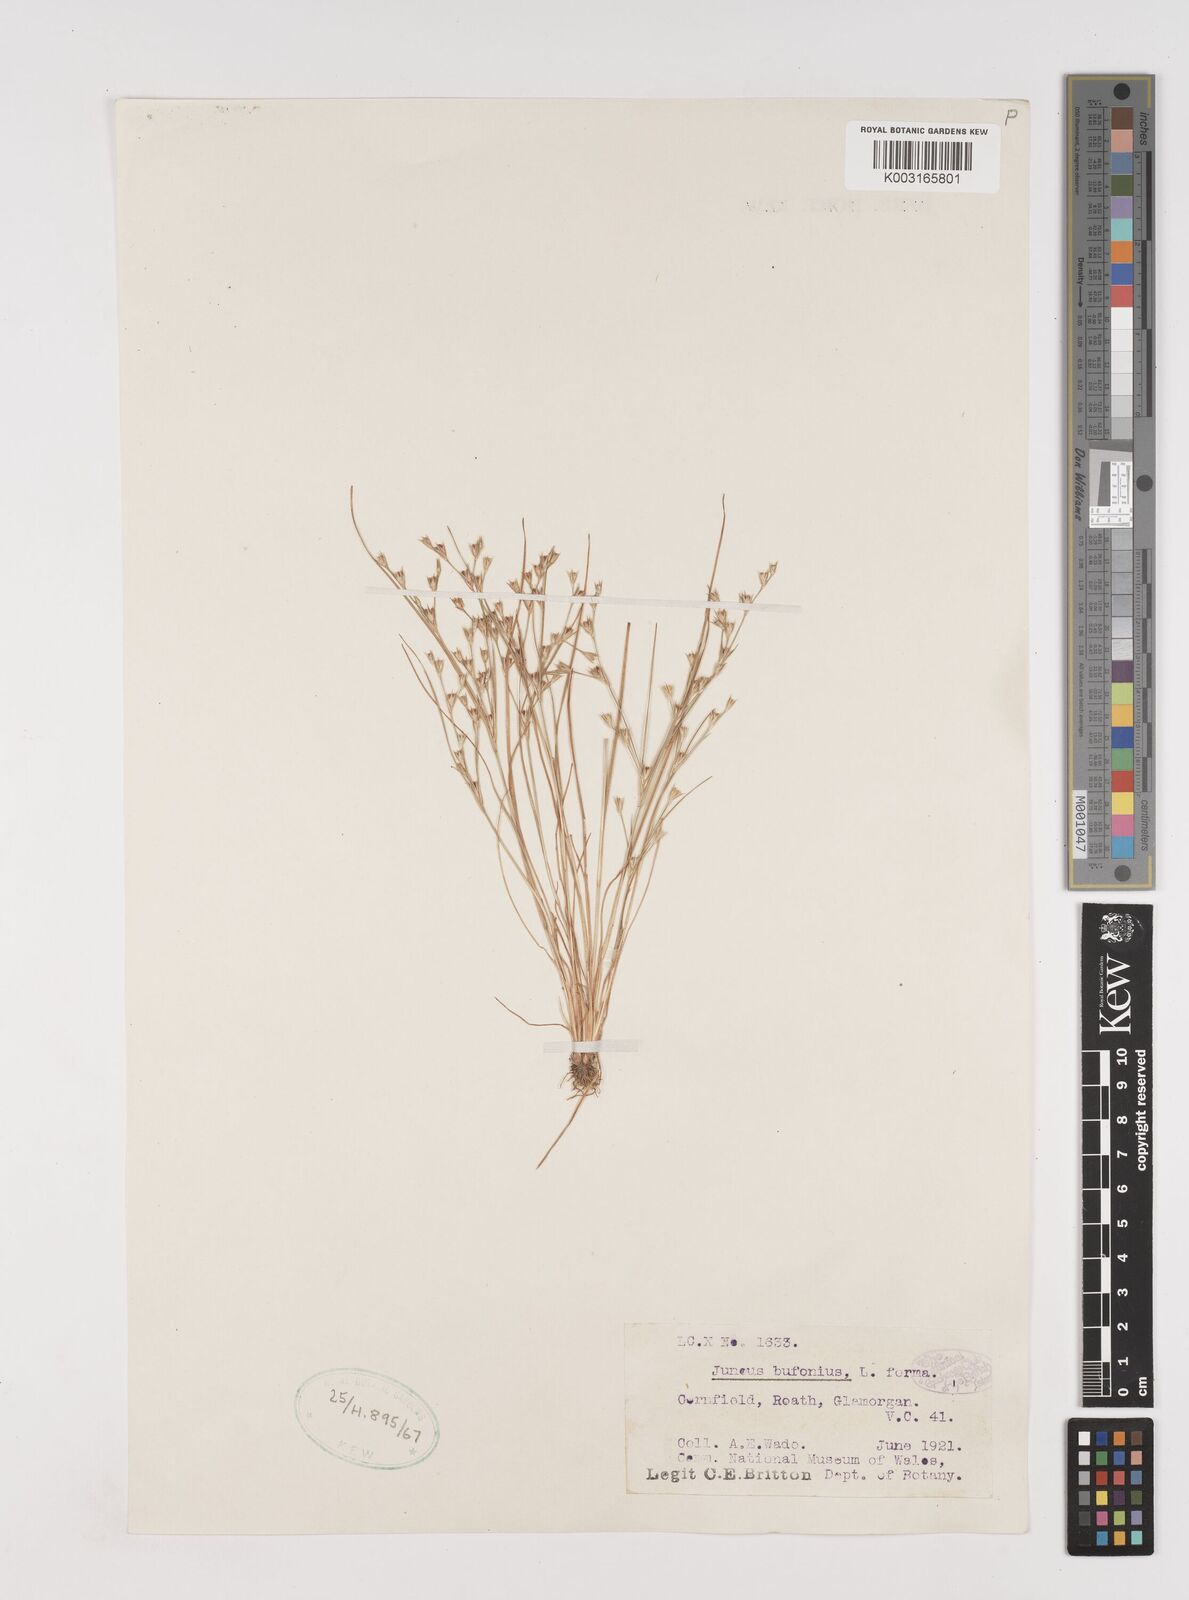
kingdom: Plantae
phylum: Tracheophyta
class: Liliopsida
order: Poales
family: Juncaceae
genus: Juncus
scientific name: Juncus bufonius
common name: Toad rush
